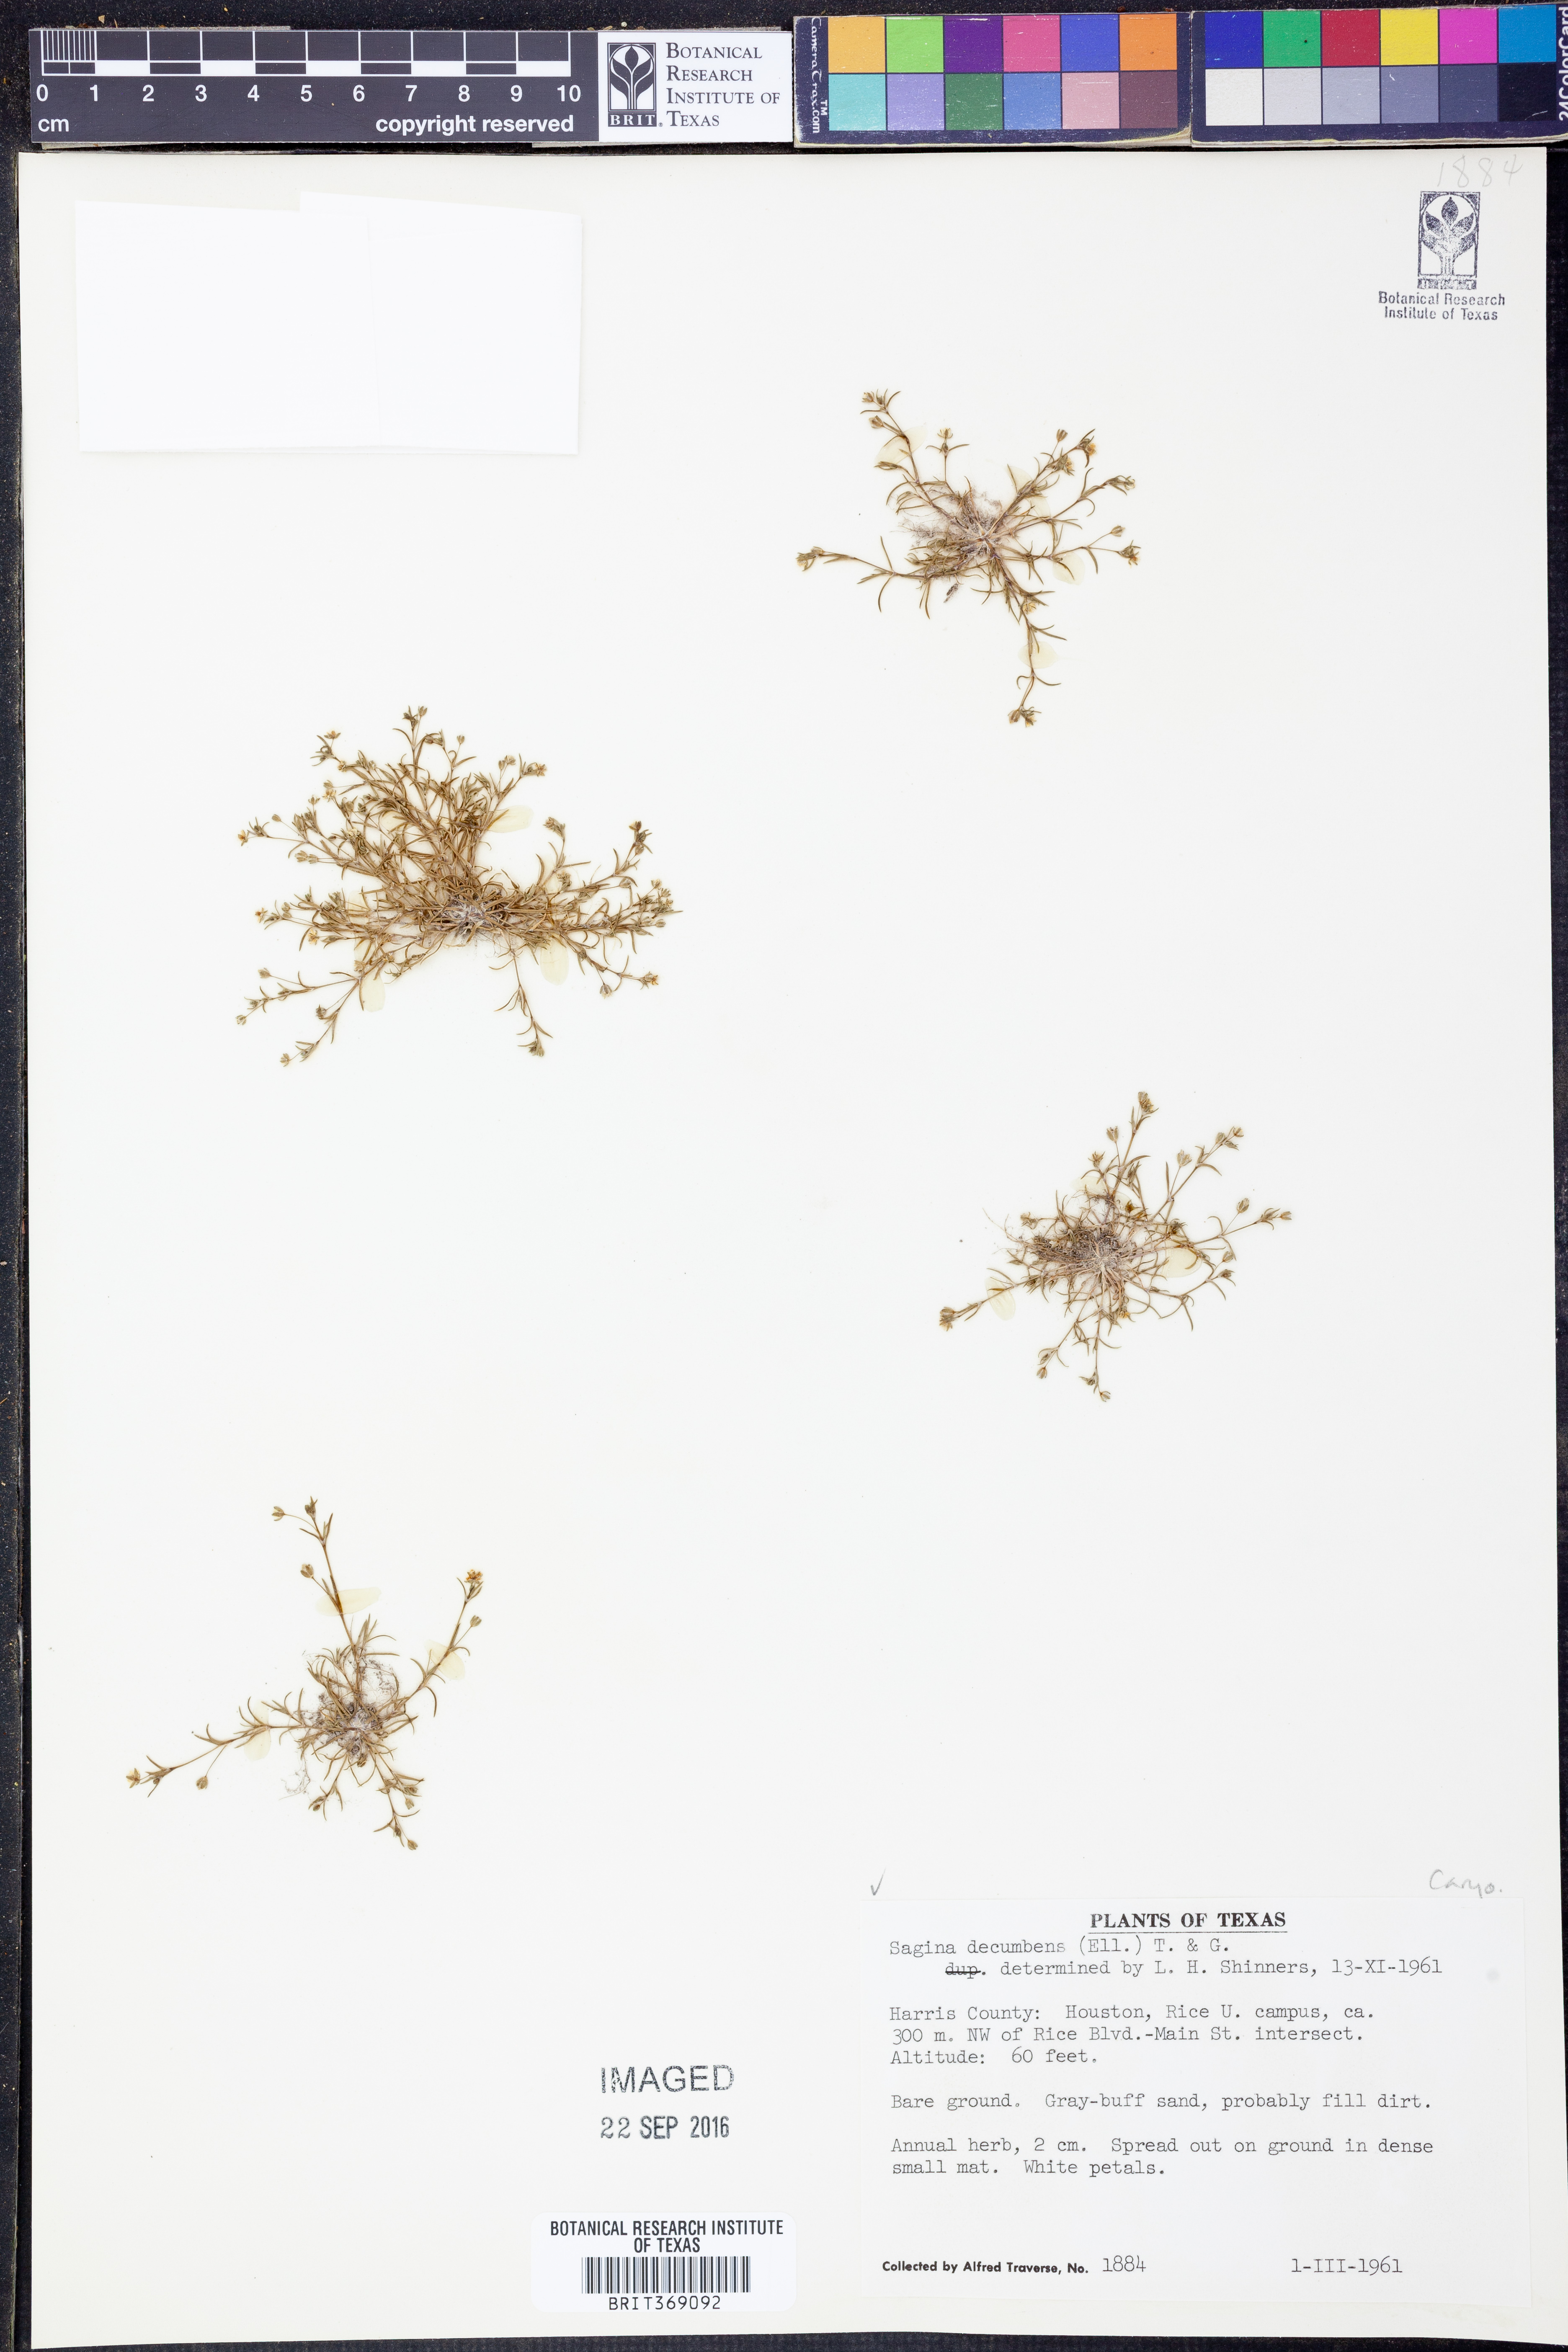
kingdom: Plantae
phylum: Tracheophyta
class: Magnoliopsida
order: Caryophyllales
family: Caryophyllaceae
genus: Sagina
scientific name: Sagina decumbens
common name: Decumbent pearlwort
